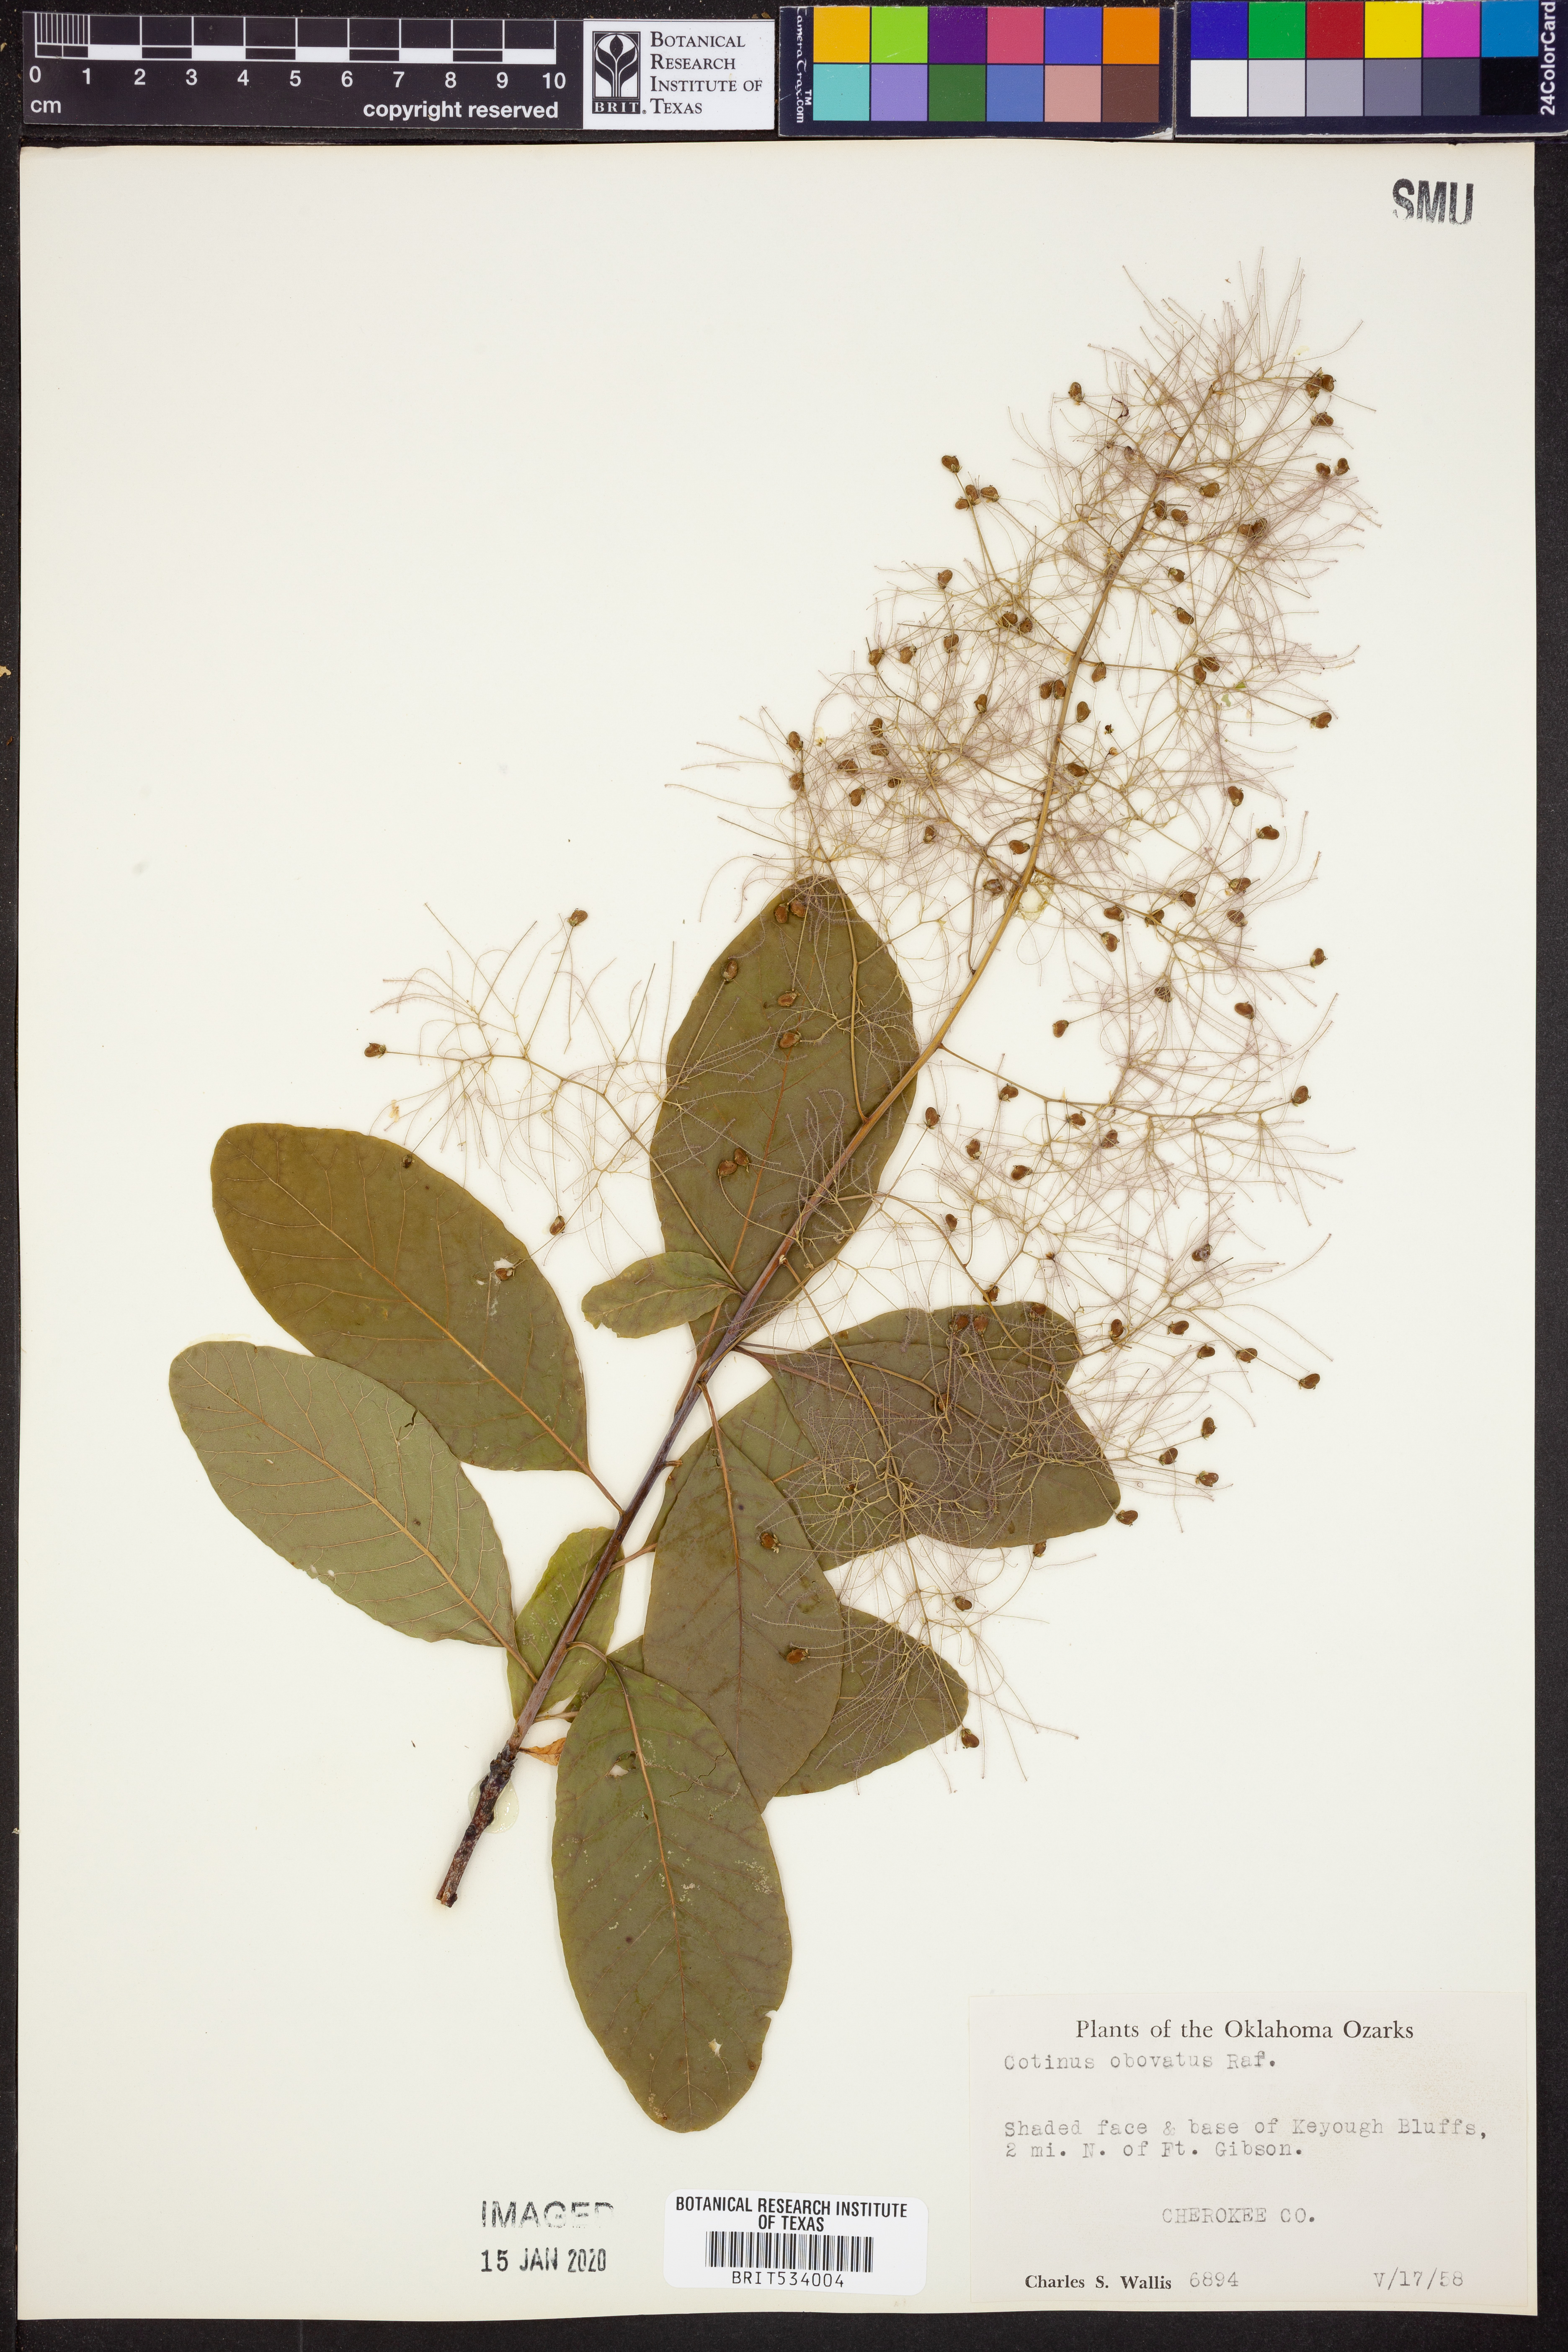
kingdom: Plantae
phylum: Tracheophyta
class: Magnoliopsida
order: Sapindales
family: Anacardiaceae
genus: Cotinus
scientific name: Cotinus obovatus
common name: Chittamwood
